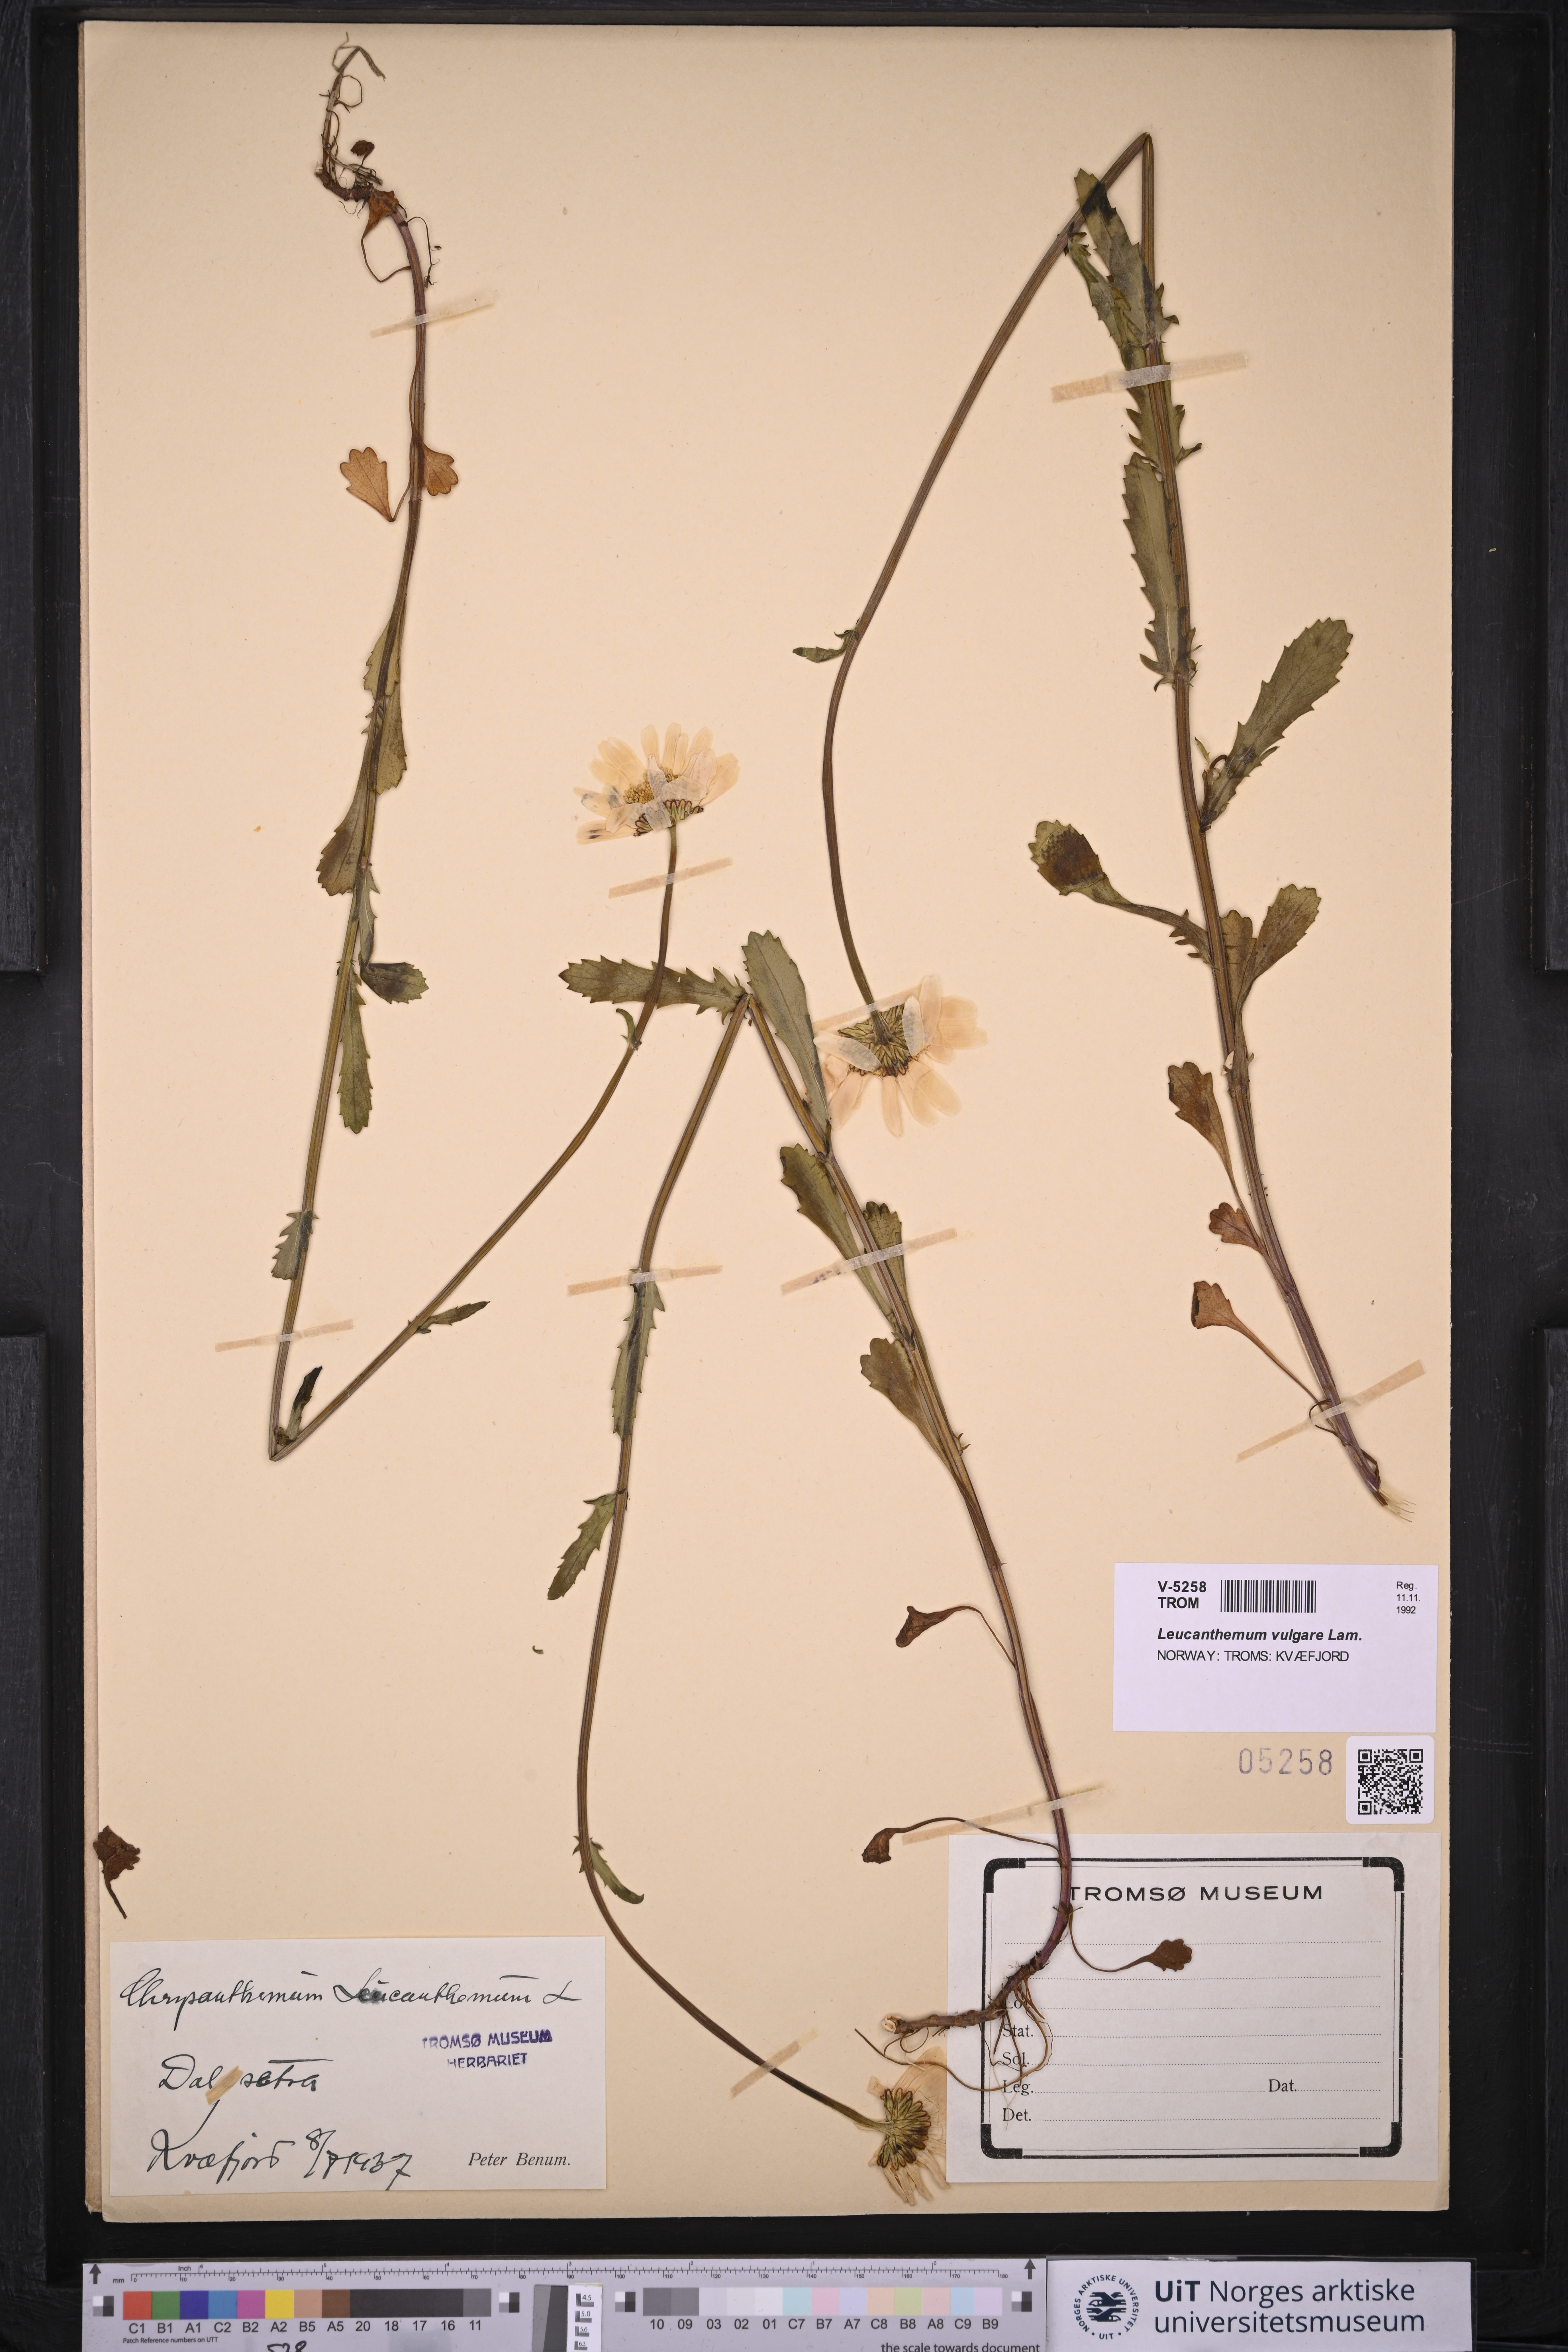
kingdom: Plantae
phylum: Tracheophyta
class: Magnoliopsida
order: Asterales
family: Asteraceae
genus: Leucanthemum
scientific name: Leucanthemum vulgare
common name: Oxeye daisy
